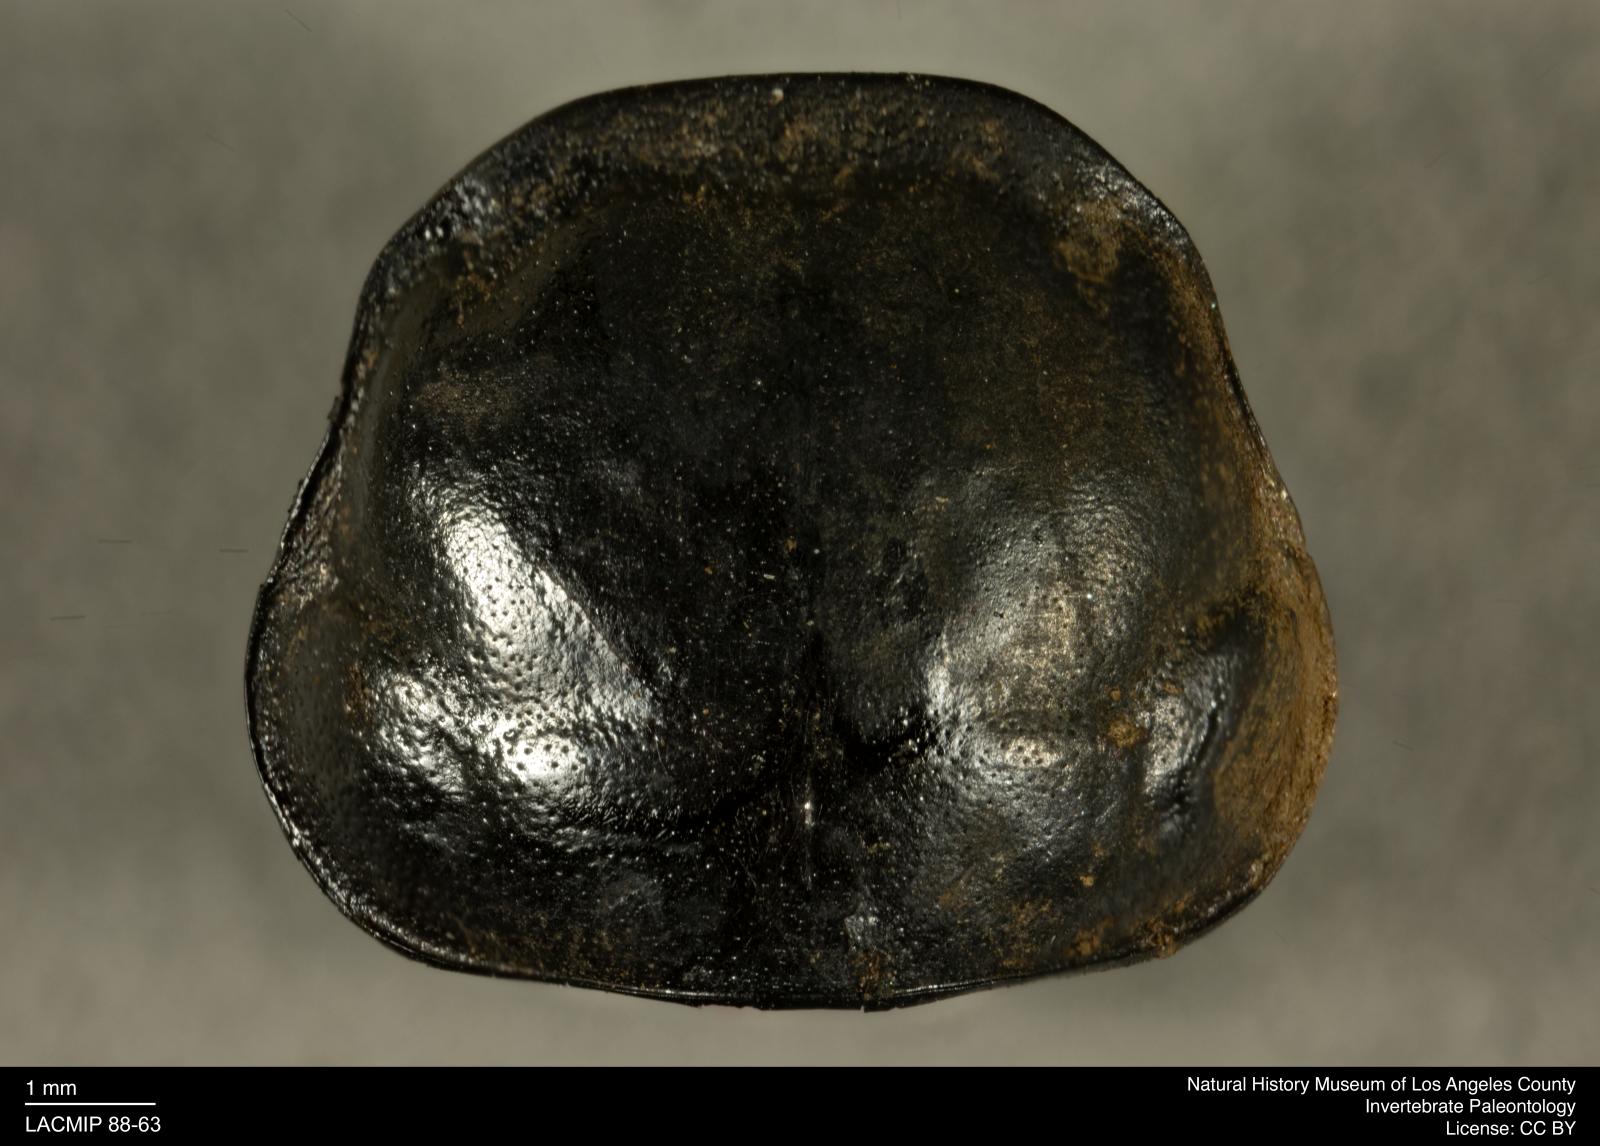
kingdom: Animalia
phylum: Arthropoda
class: Insecta
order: Coleoptera
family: Staphylinidae
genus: Nicrophorus
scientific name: Nicrophorus marginatus
